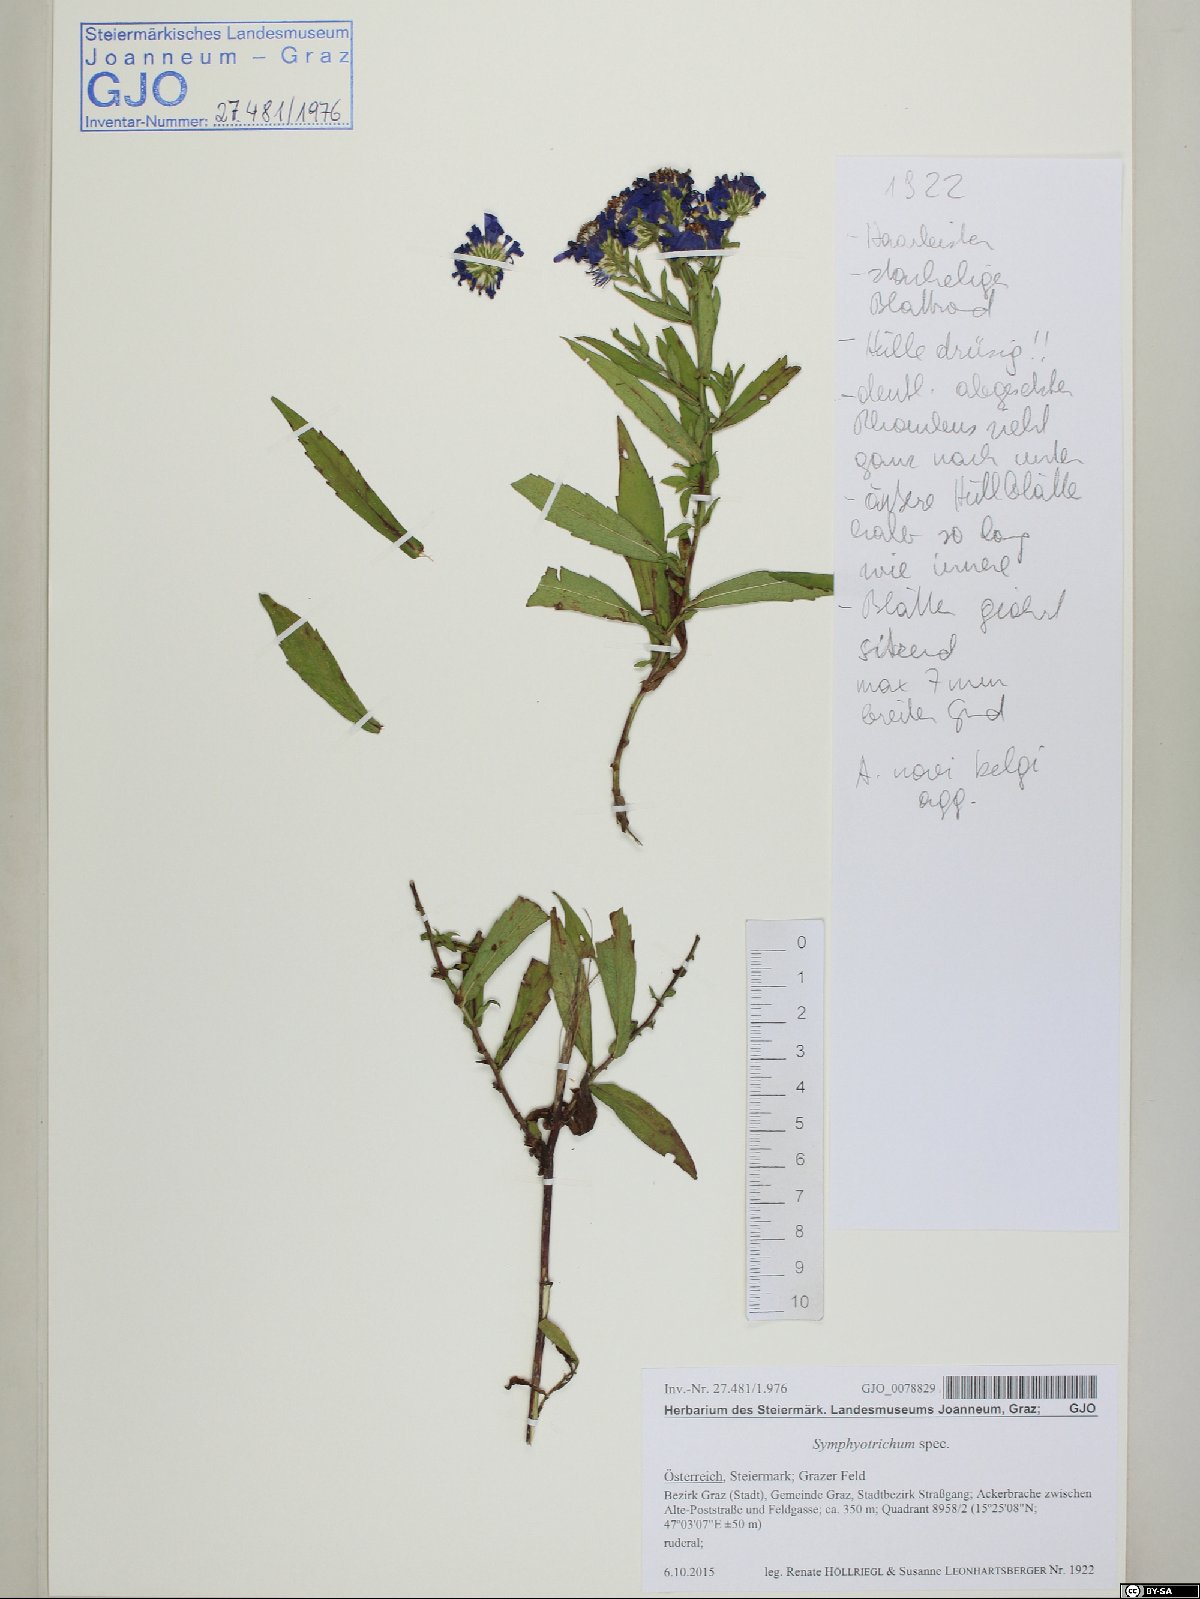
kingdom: Plantae
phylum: Tracheophyta
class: Magnoliopsida
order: Asterales
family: Asteraceae
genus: Symphyotrichum
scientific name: Symphyotrichum
